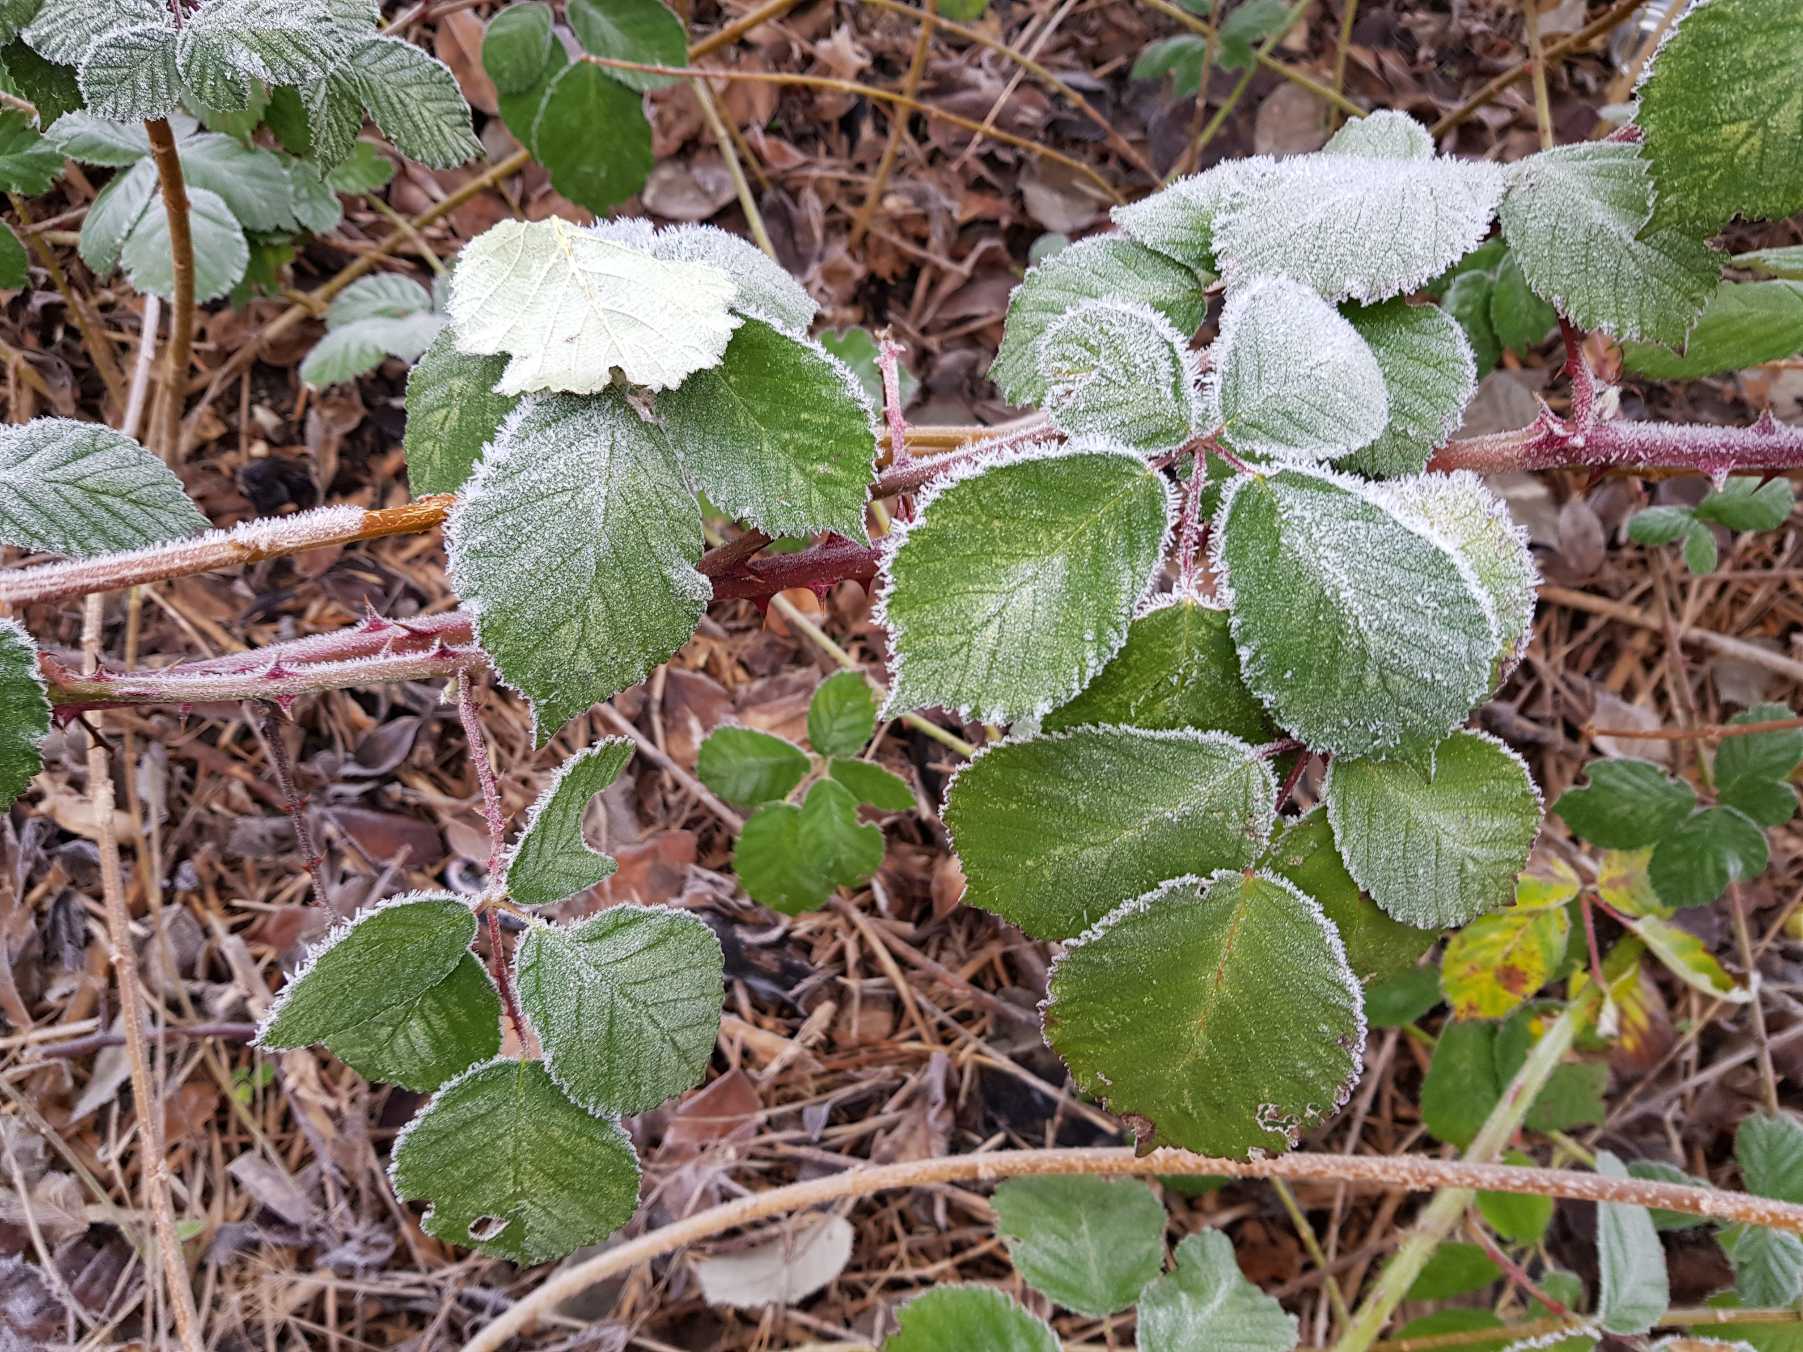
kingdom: Plantae
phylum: Tracheophyta
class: Magnoliopsida
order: Rosales
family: Rosaceae
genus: Rubus
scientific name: Rubus armeniacus
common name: Armensk brombær
